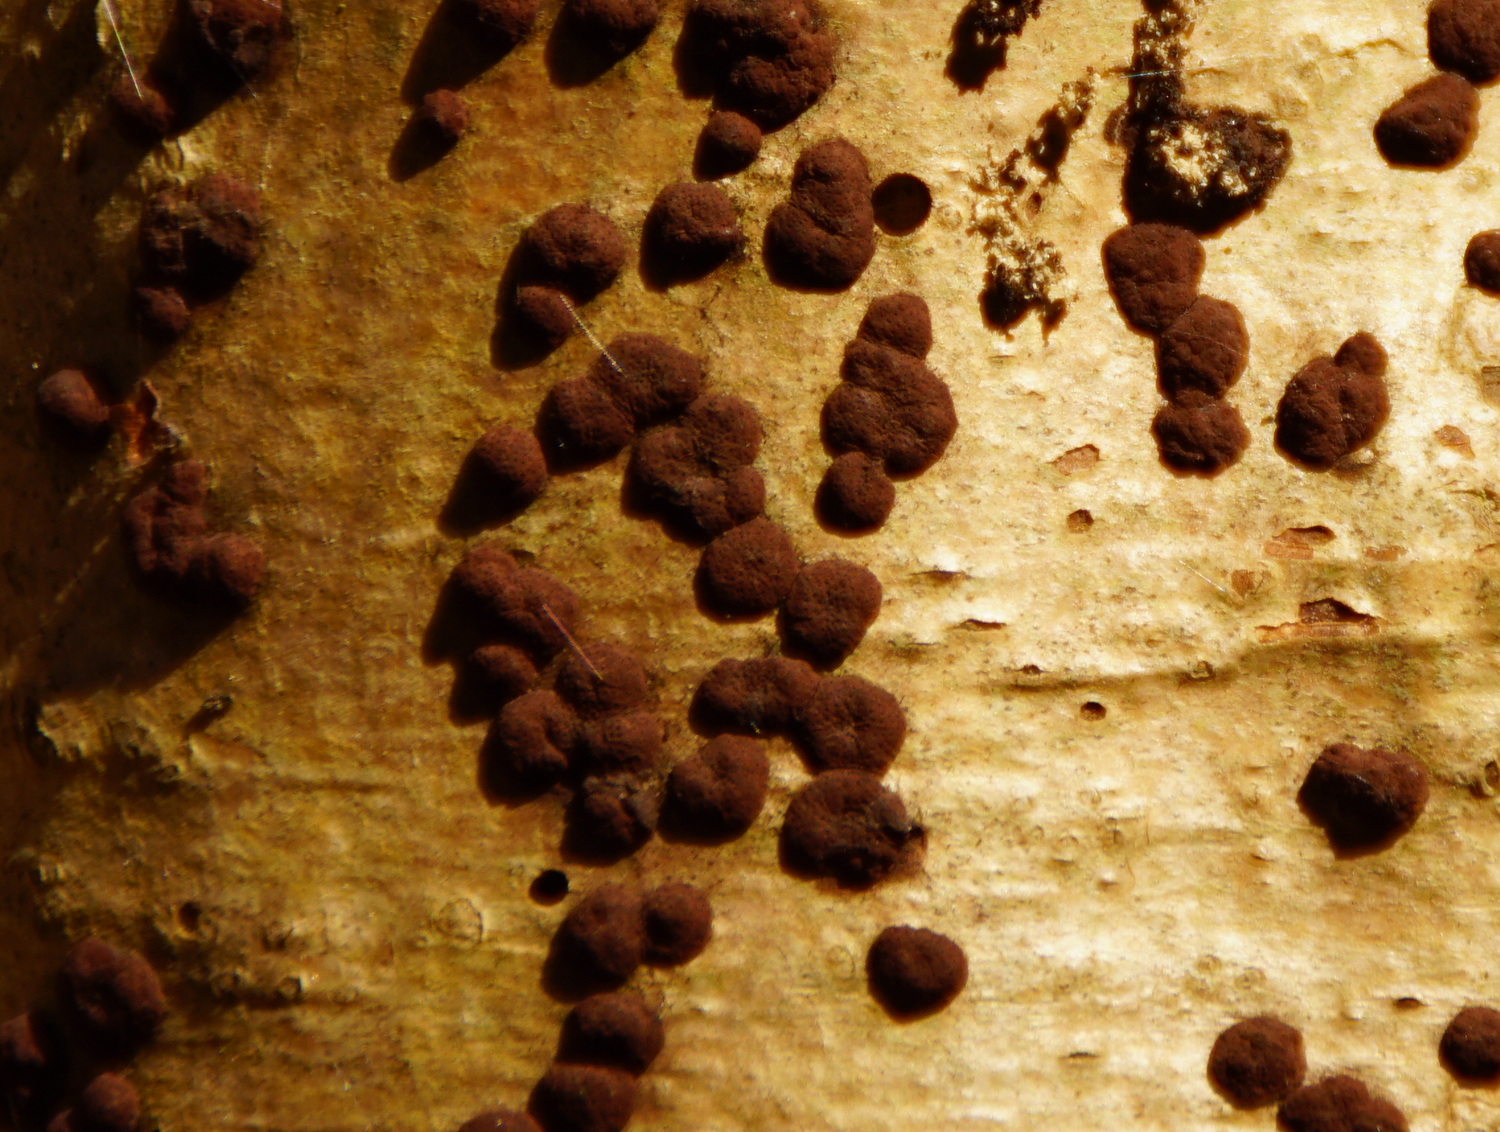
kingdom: Fungi
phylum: Ascomycota
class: Sordariomycetes
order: Xylariales
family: Hypoxylaceae
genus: Hypoxylon
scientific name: Hypoxylon fuscum
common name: kegleformet kulbær
